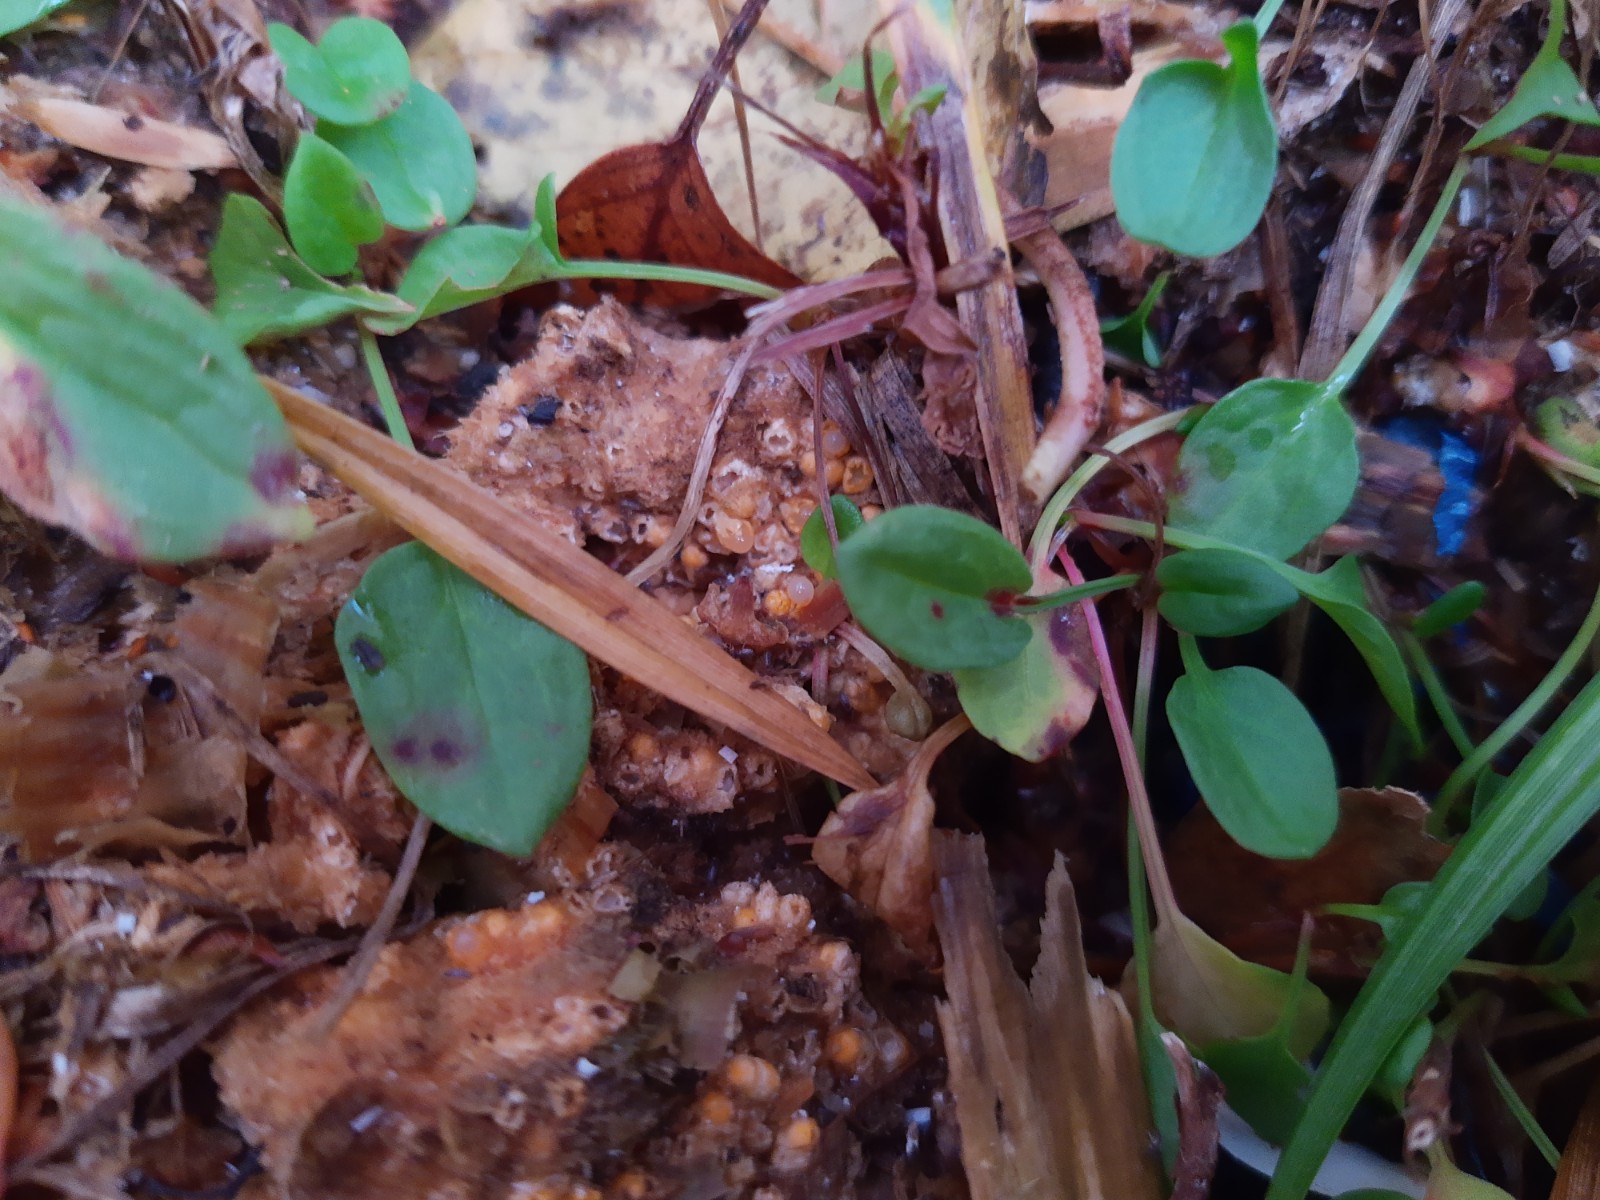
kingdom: Fungi
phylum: Basidiomycota
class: Agaricomycetes
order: Geastrales
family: Geastraceae
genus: Sphaerobolus
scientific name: Sphaerobolus stellatus
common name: bombekaster
